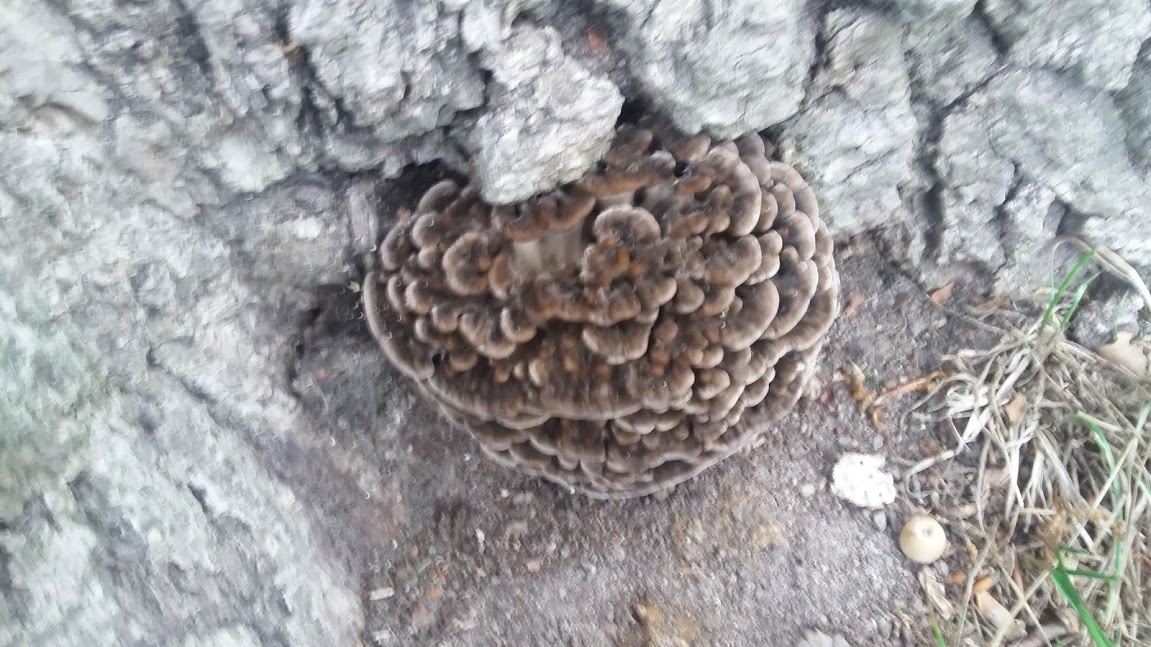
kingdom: Fungi
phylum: Basidiomycota
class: Agaricomycetes
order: Polyporales
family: Grifolaceae
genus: Grifola
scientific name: Grifola frondosa
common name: tueporesvamp
